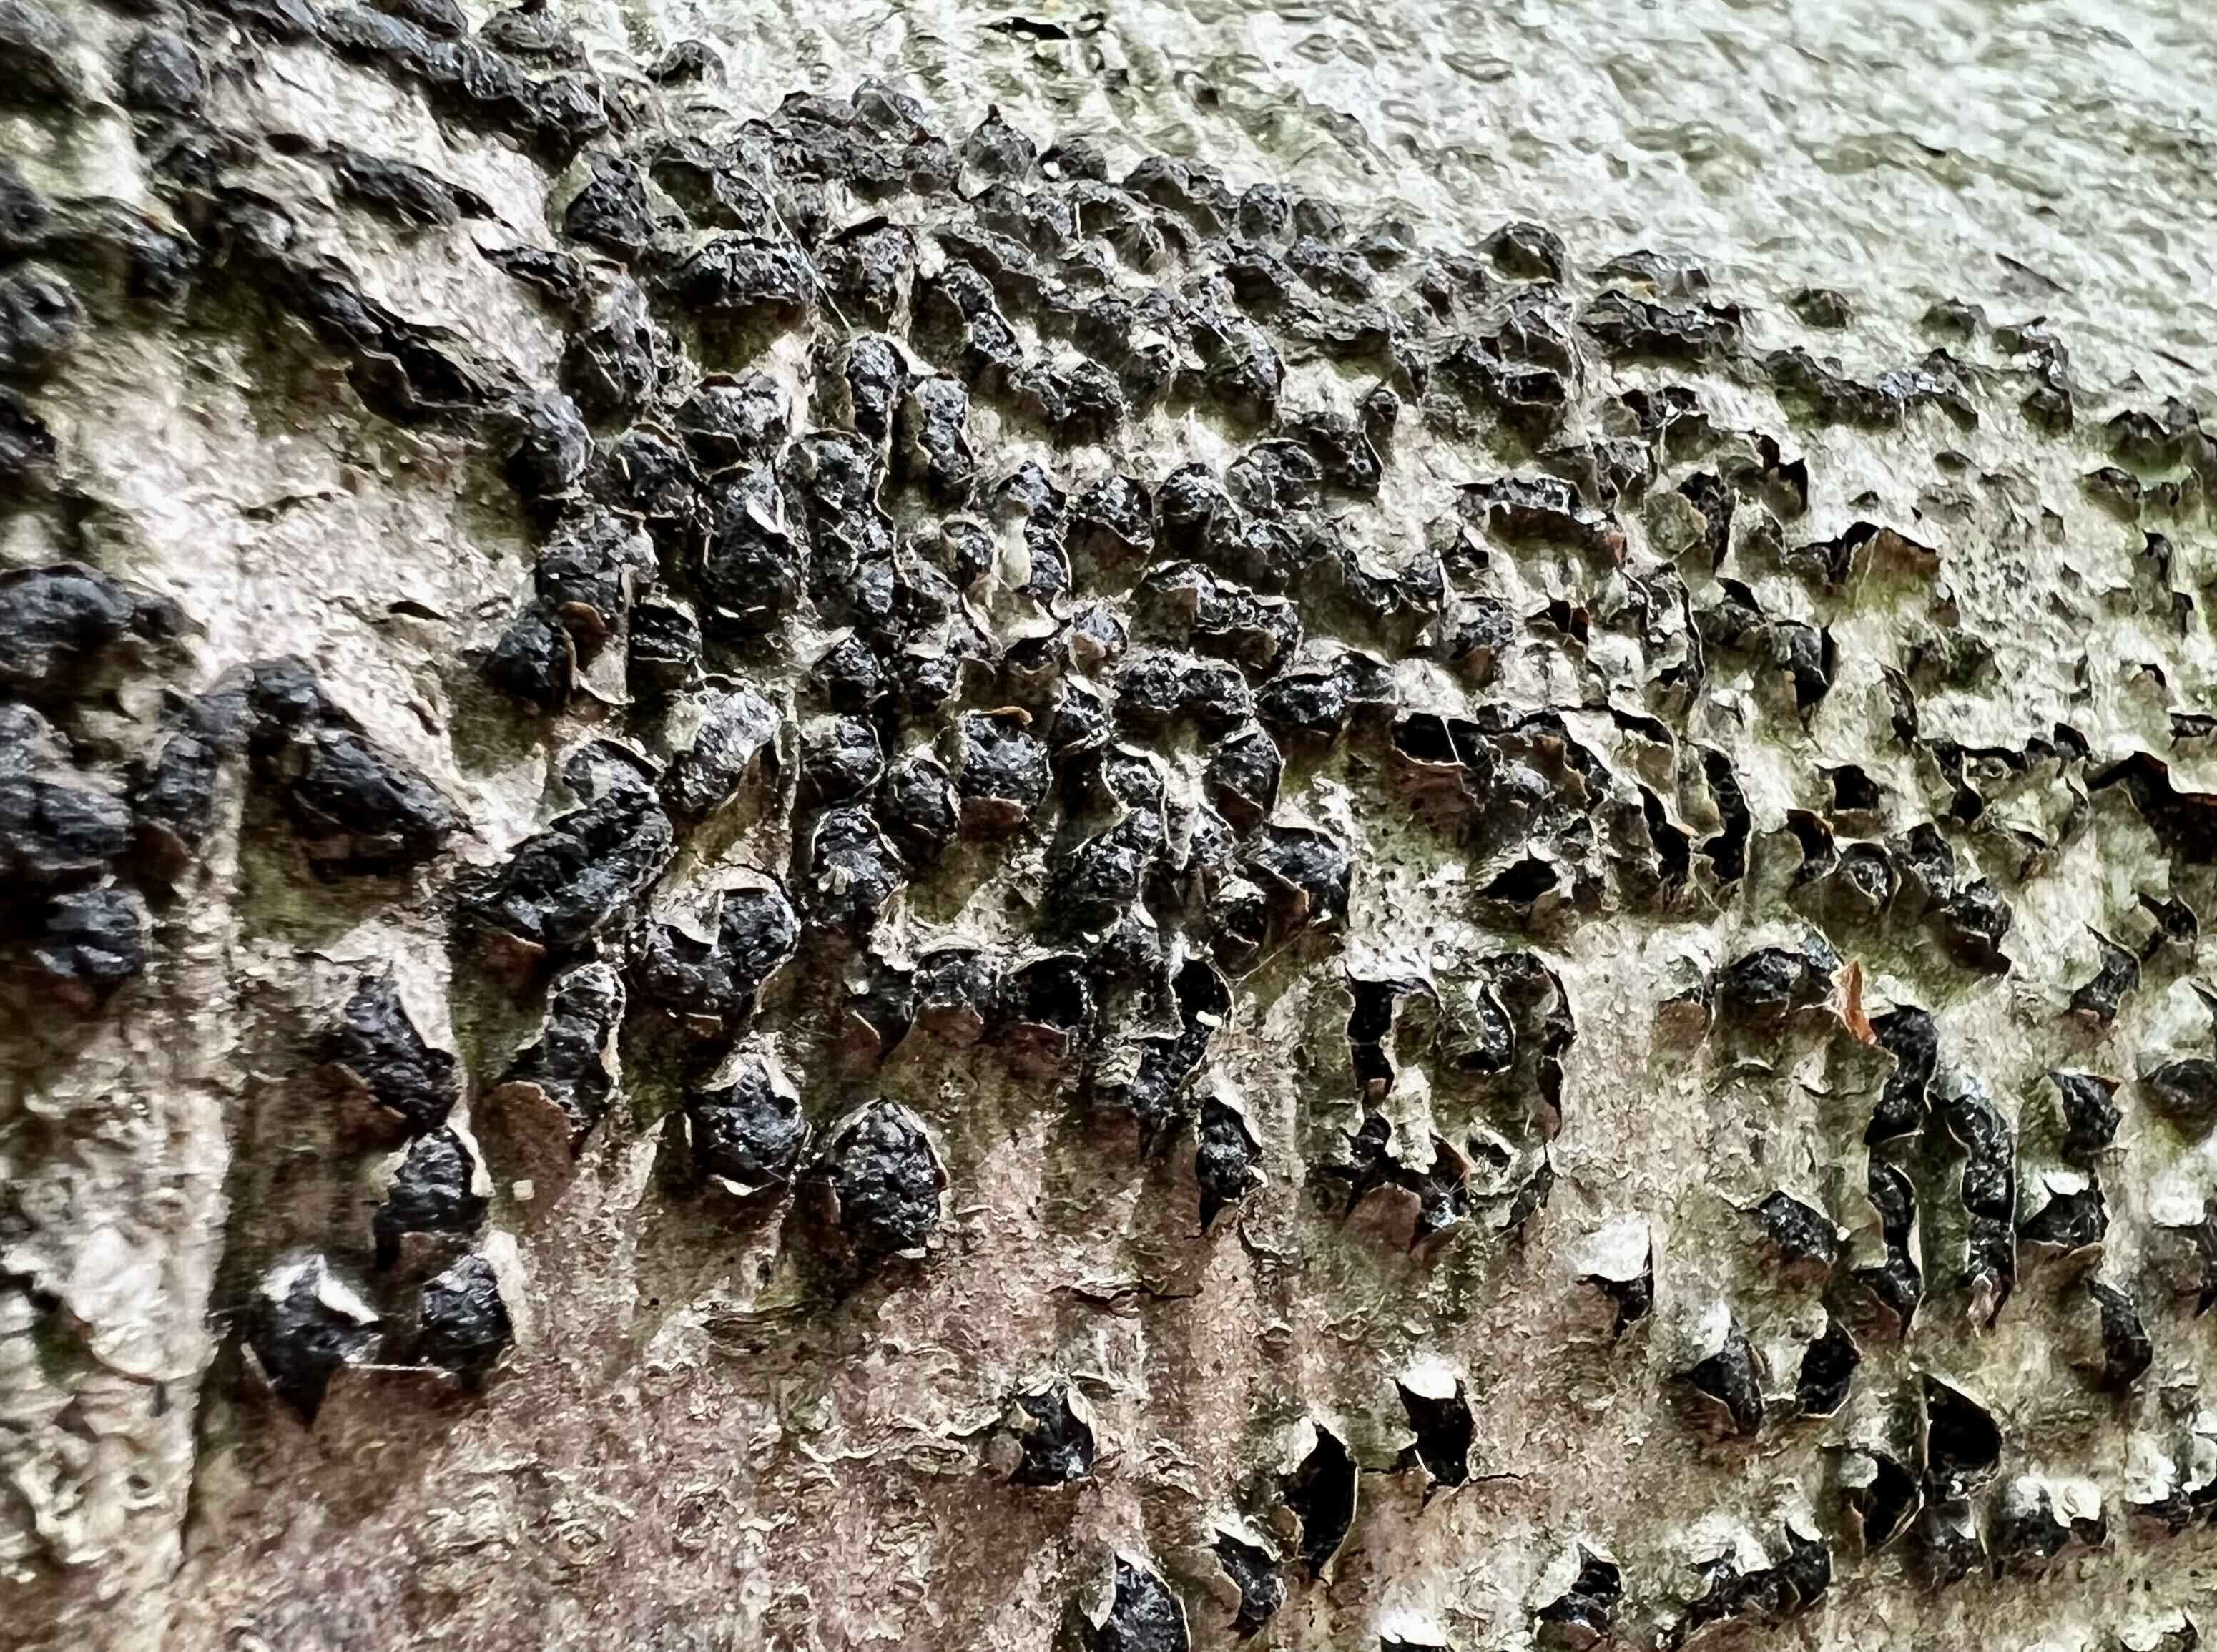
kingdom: Fungi
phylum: Ascomycota
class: Sordariomycetes
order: Xylariales
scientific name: Xylariales
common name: stødsvampordenen
